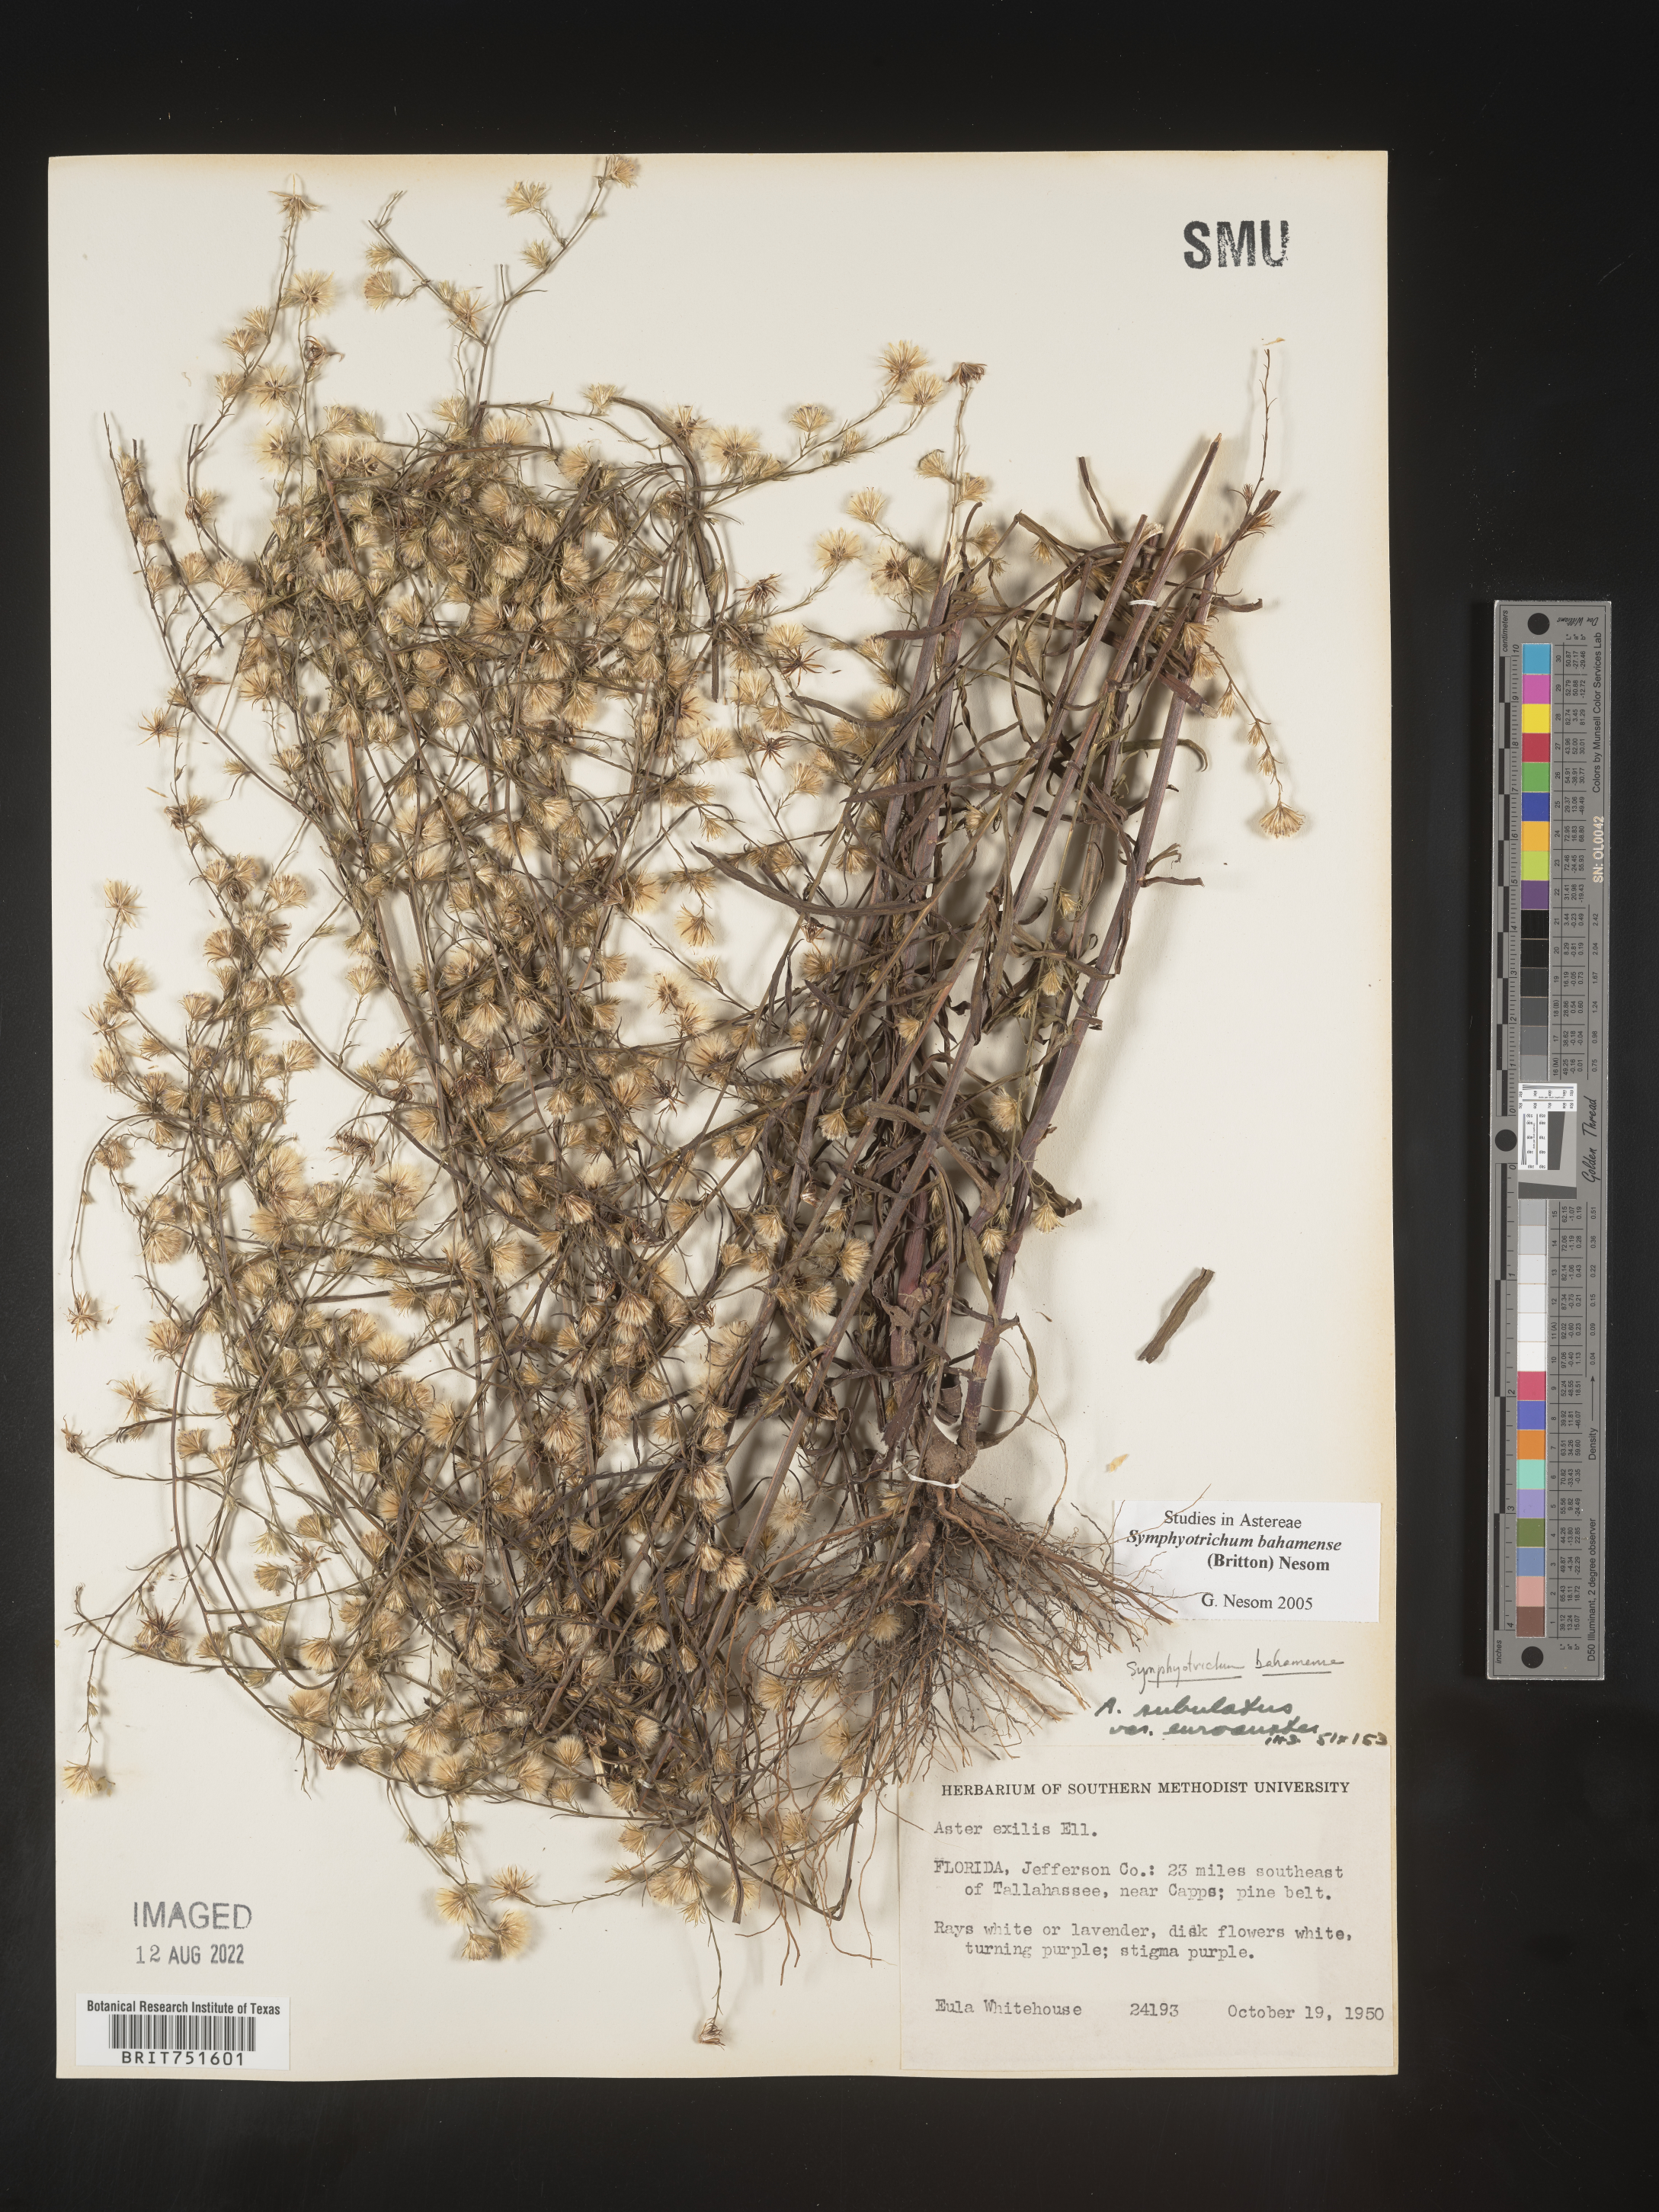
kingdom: Plantae
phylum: Tracheophyta
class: Magnoliopsida
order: Asterales
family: Asteraceae
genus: Symphyotrichum
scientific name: Symphyotrichum subulatum
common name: Annual saltmarsh aster
